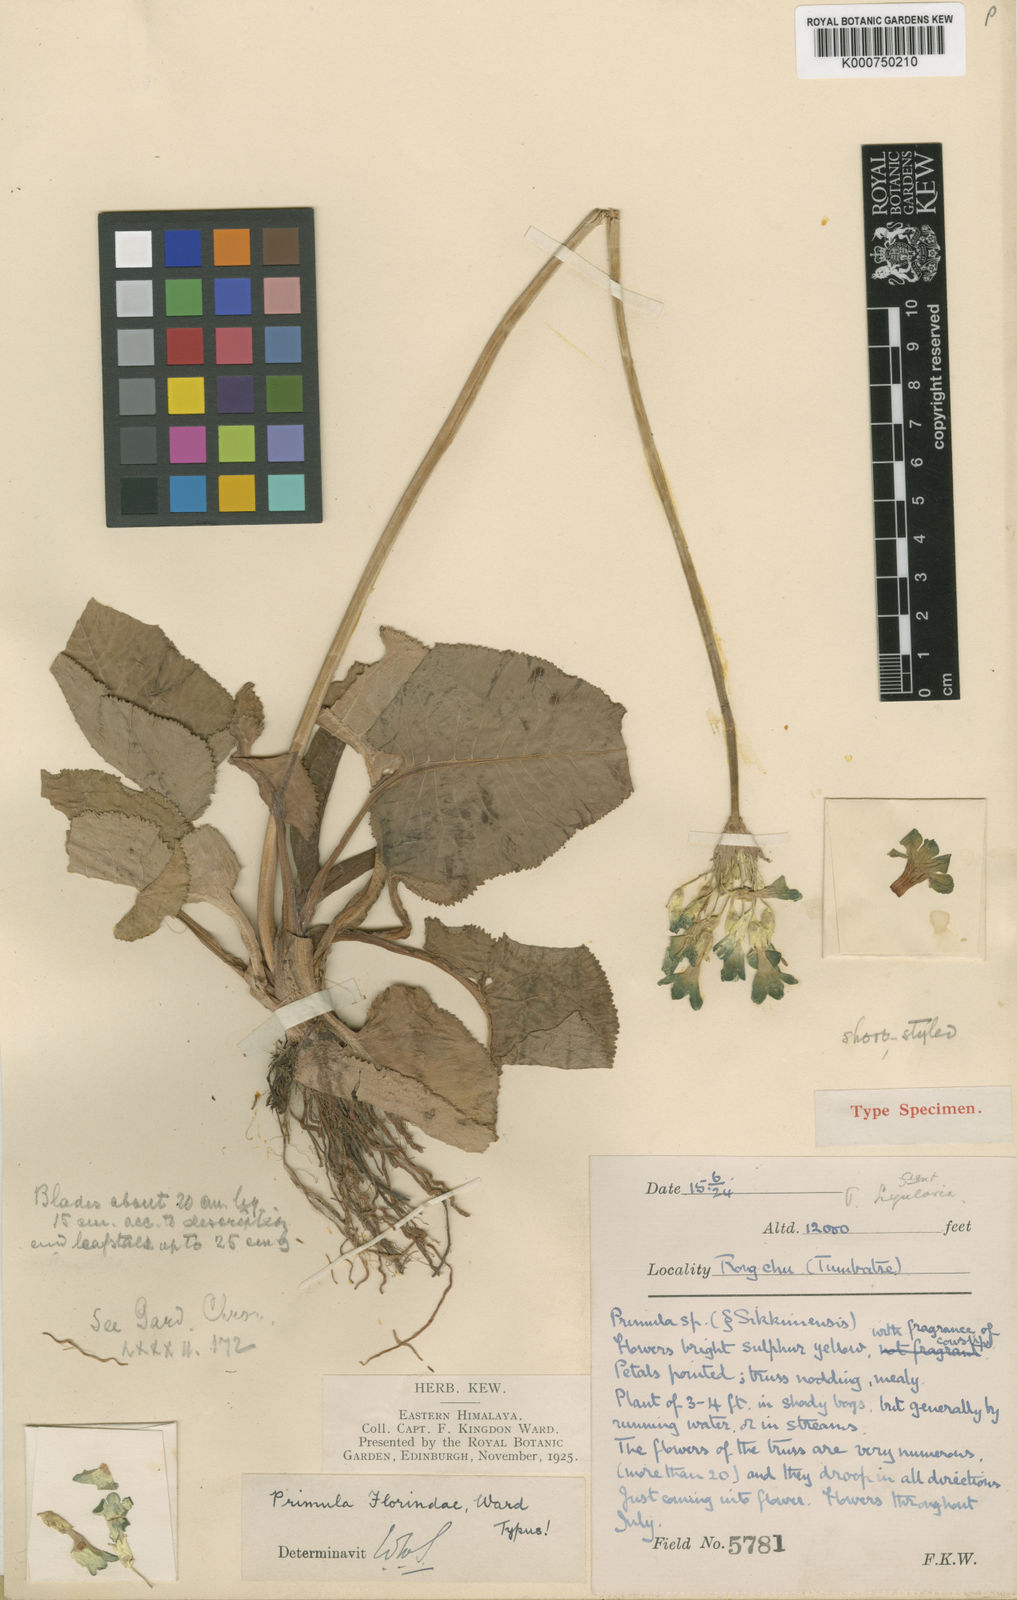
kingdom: Plantae
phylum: Tracheophyta
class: Magnoliopsida
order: Ericales
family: Primulaceae
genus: Primula
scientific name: Primula florindae
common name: Tibetan cowslip
